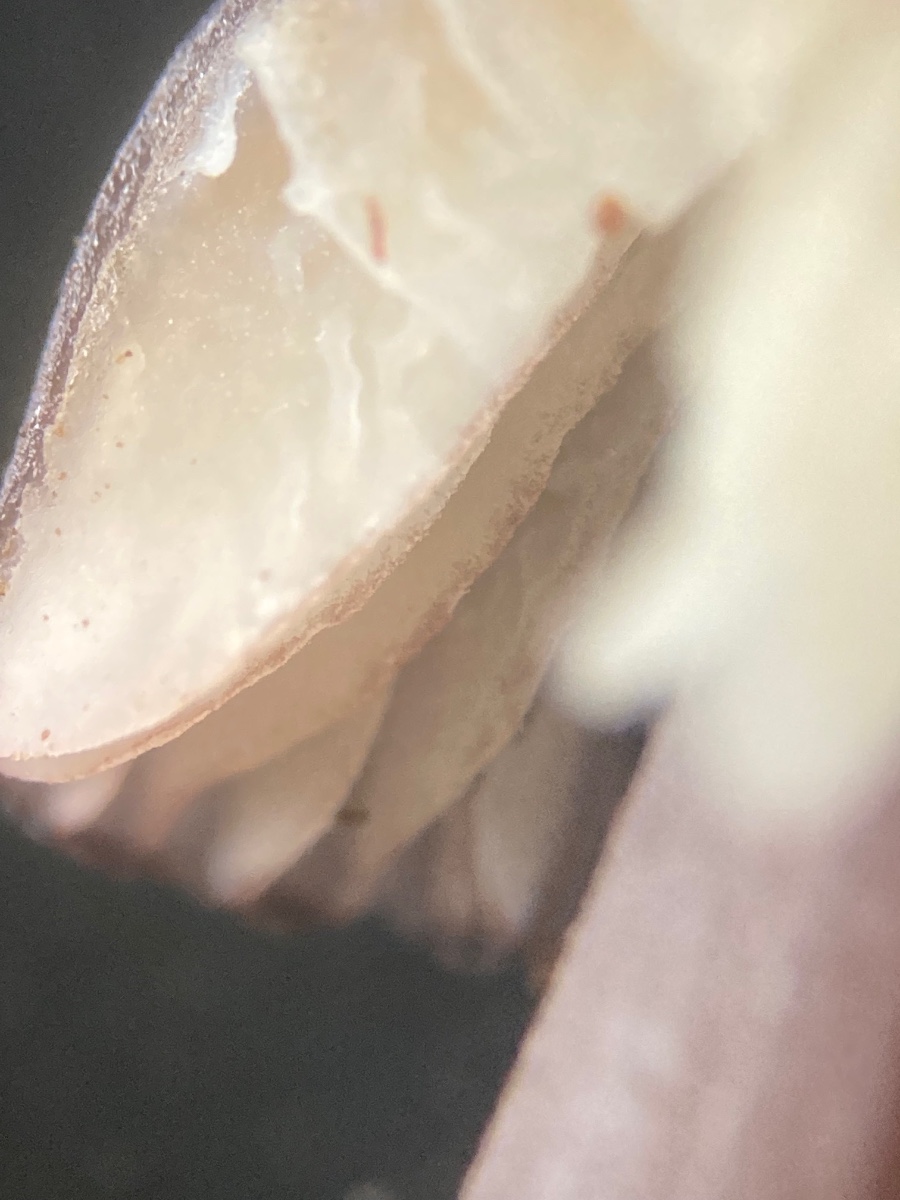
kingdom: Fungi
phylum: Basidiomycota
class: Agaricomycetes
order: Agaricales
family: Mycenaceae
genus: Mycena
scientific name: Mycena purpureofusca
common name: purpur-huesvamp
